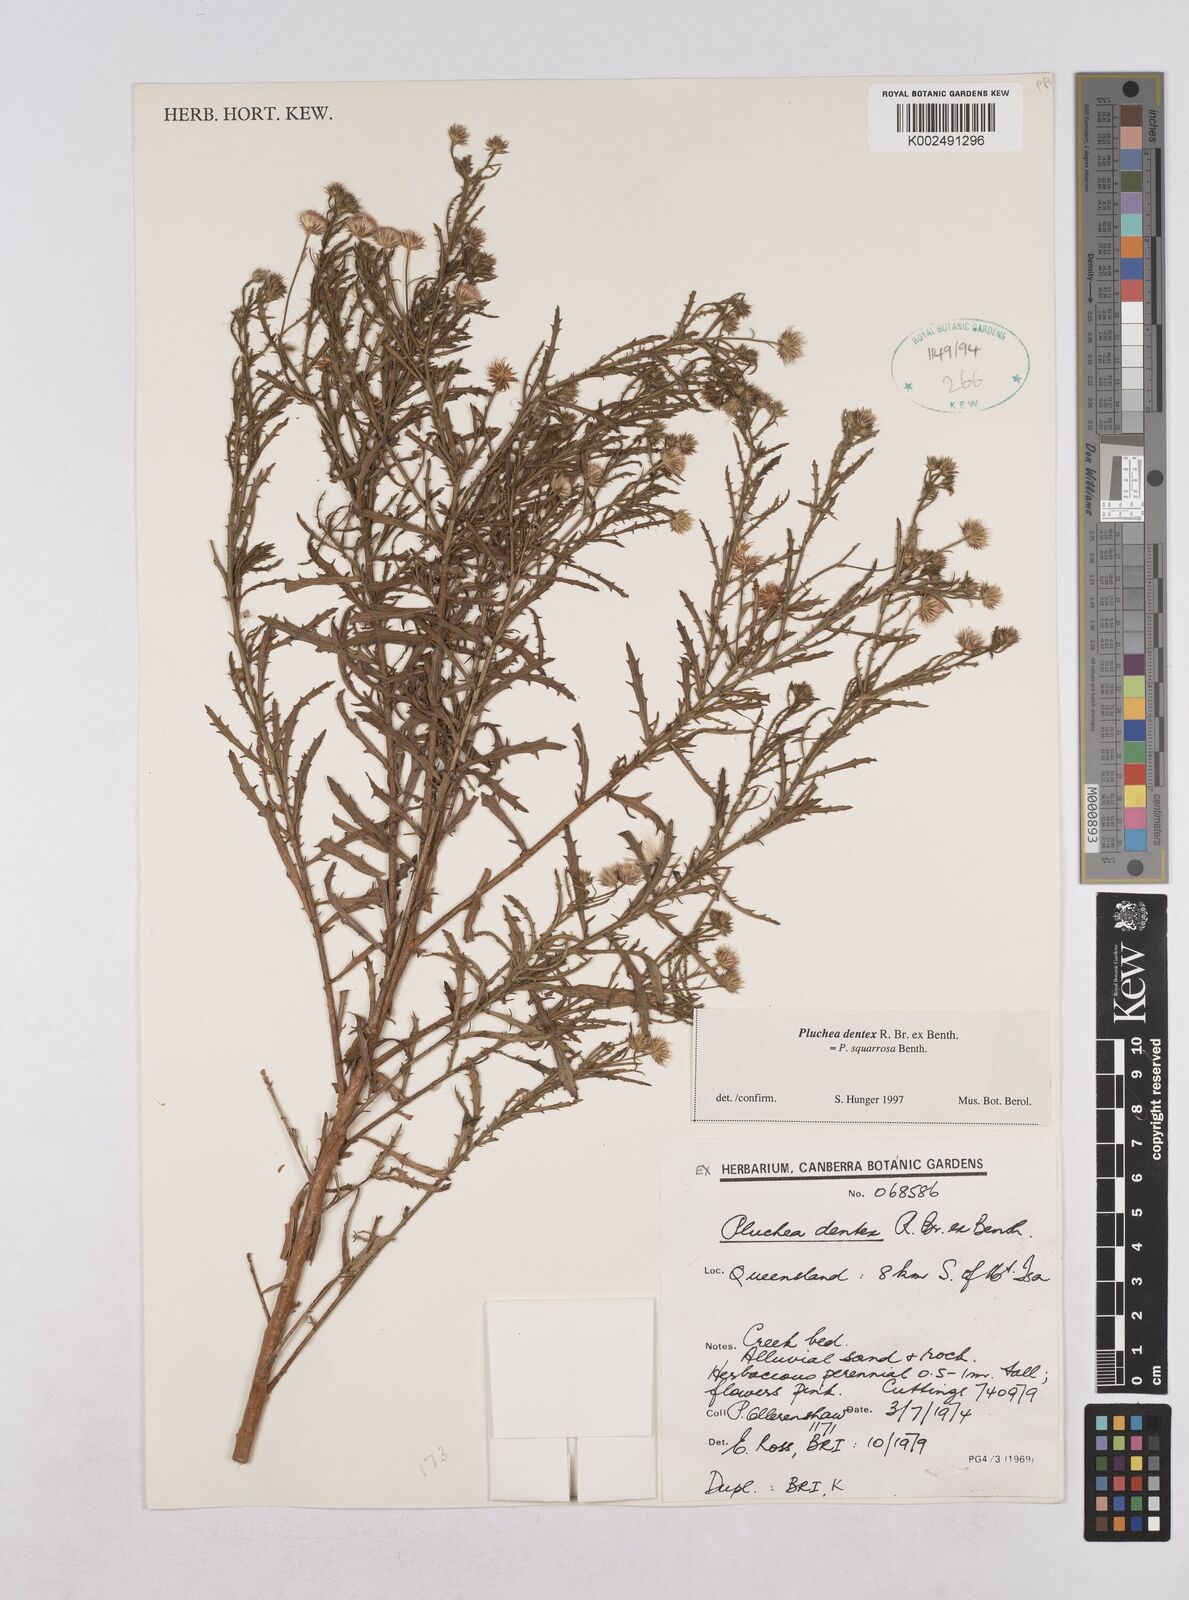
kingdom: Plantae
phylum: Tracheophyta
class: Magnoliopsida
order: Asterales
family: Asteraceae
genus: Pluchea
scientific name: Pluchea dentex
